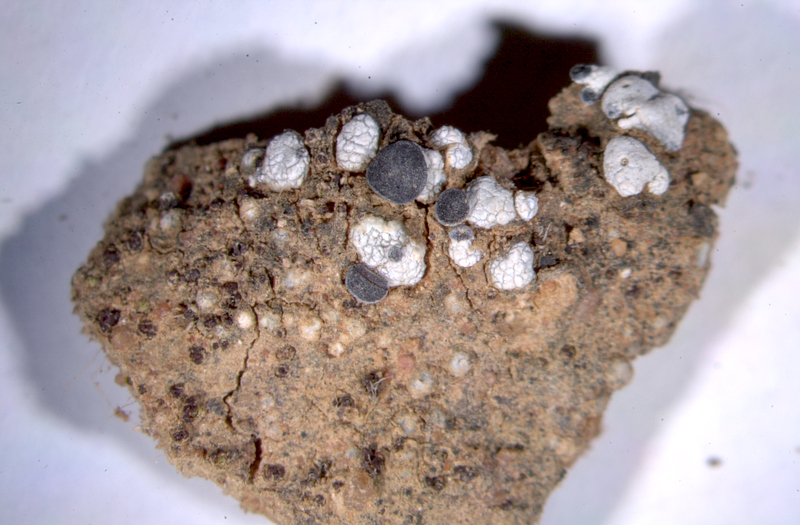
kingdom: Fungi
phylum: Ascomycota
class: Eurotiomycetes
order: Verrucariales
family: Verrucariaceae
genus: Catapyrenium
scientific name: Catapyrenium squamulosum
